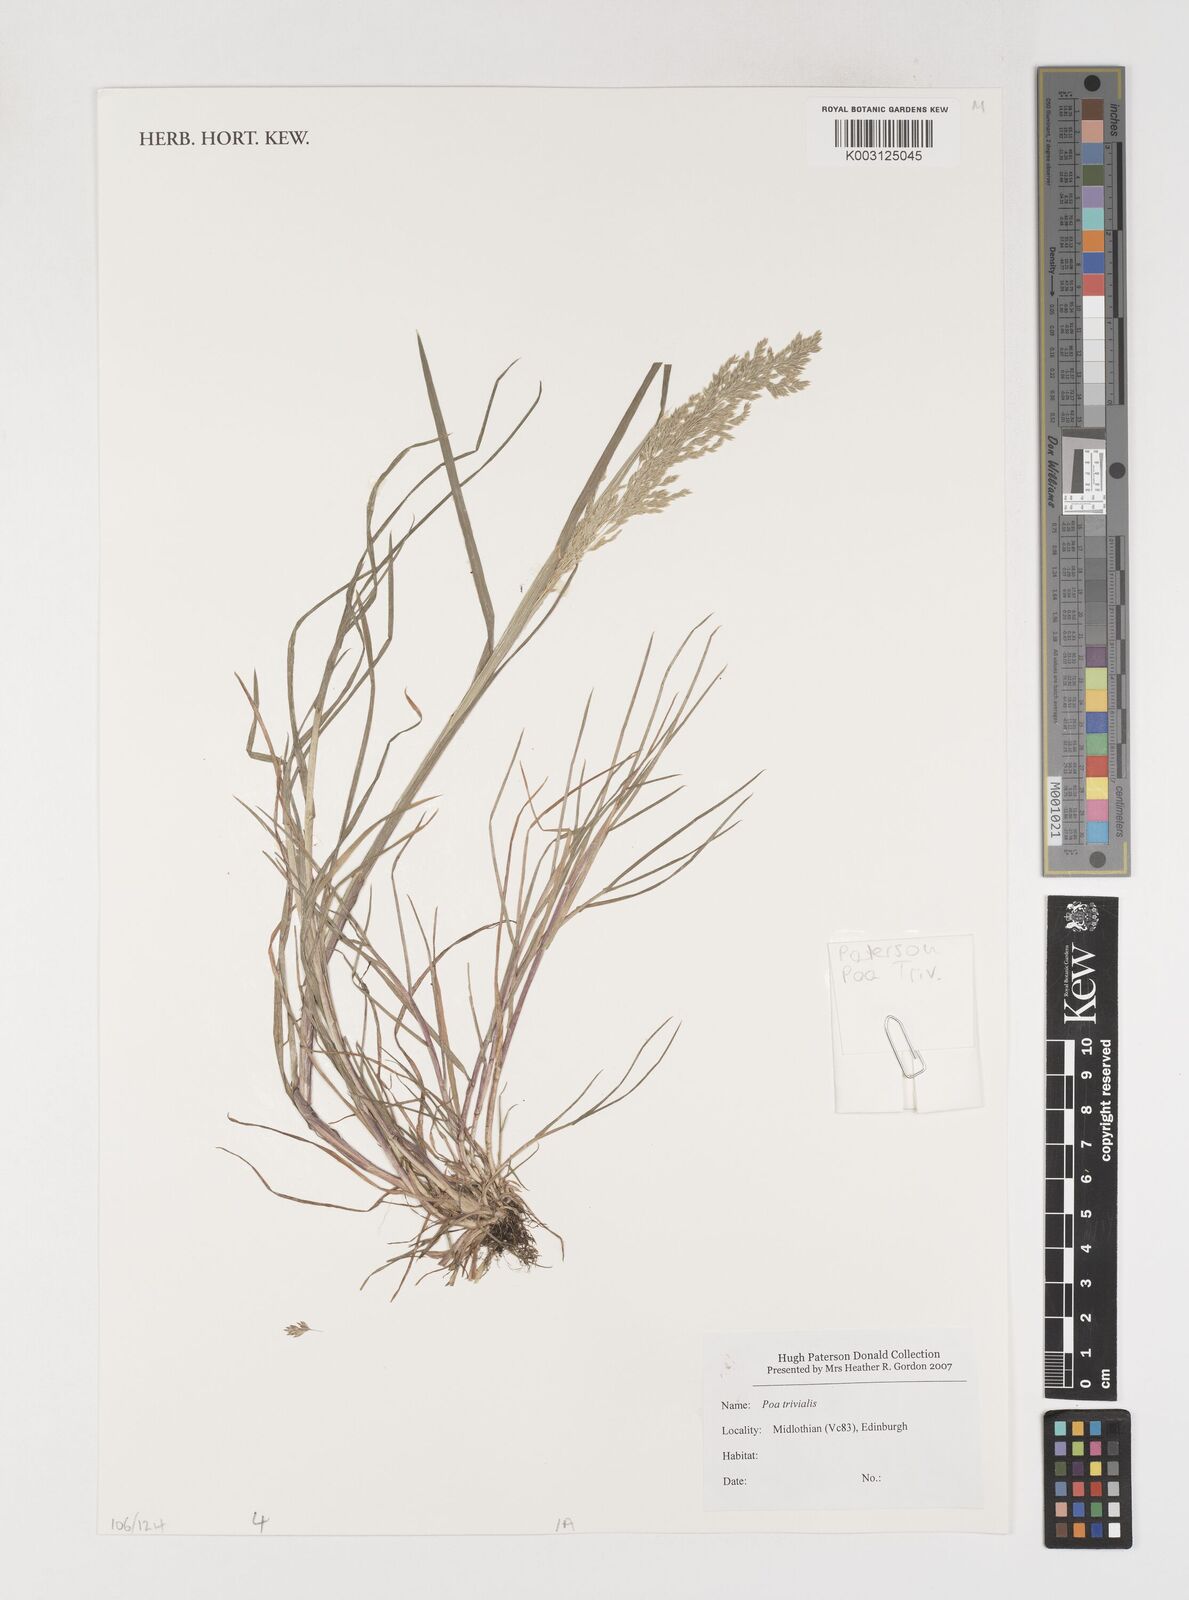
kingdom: Plantae
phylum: Tracheophyta
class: Liliopsida
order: Poales
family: Poaceae
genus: Poa
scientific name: Poa trivialis
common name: Rough bluegrass
